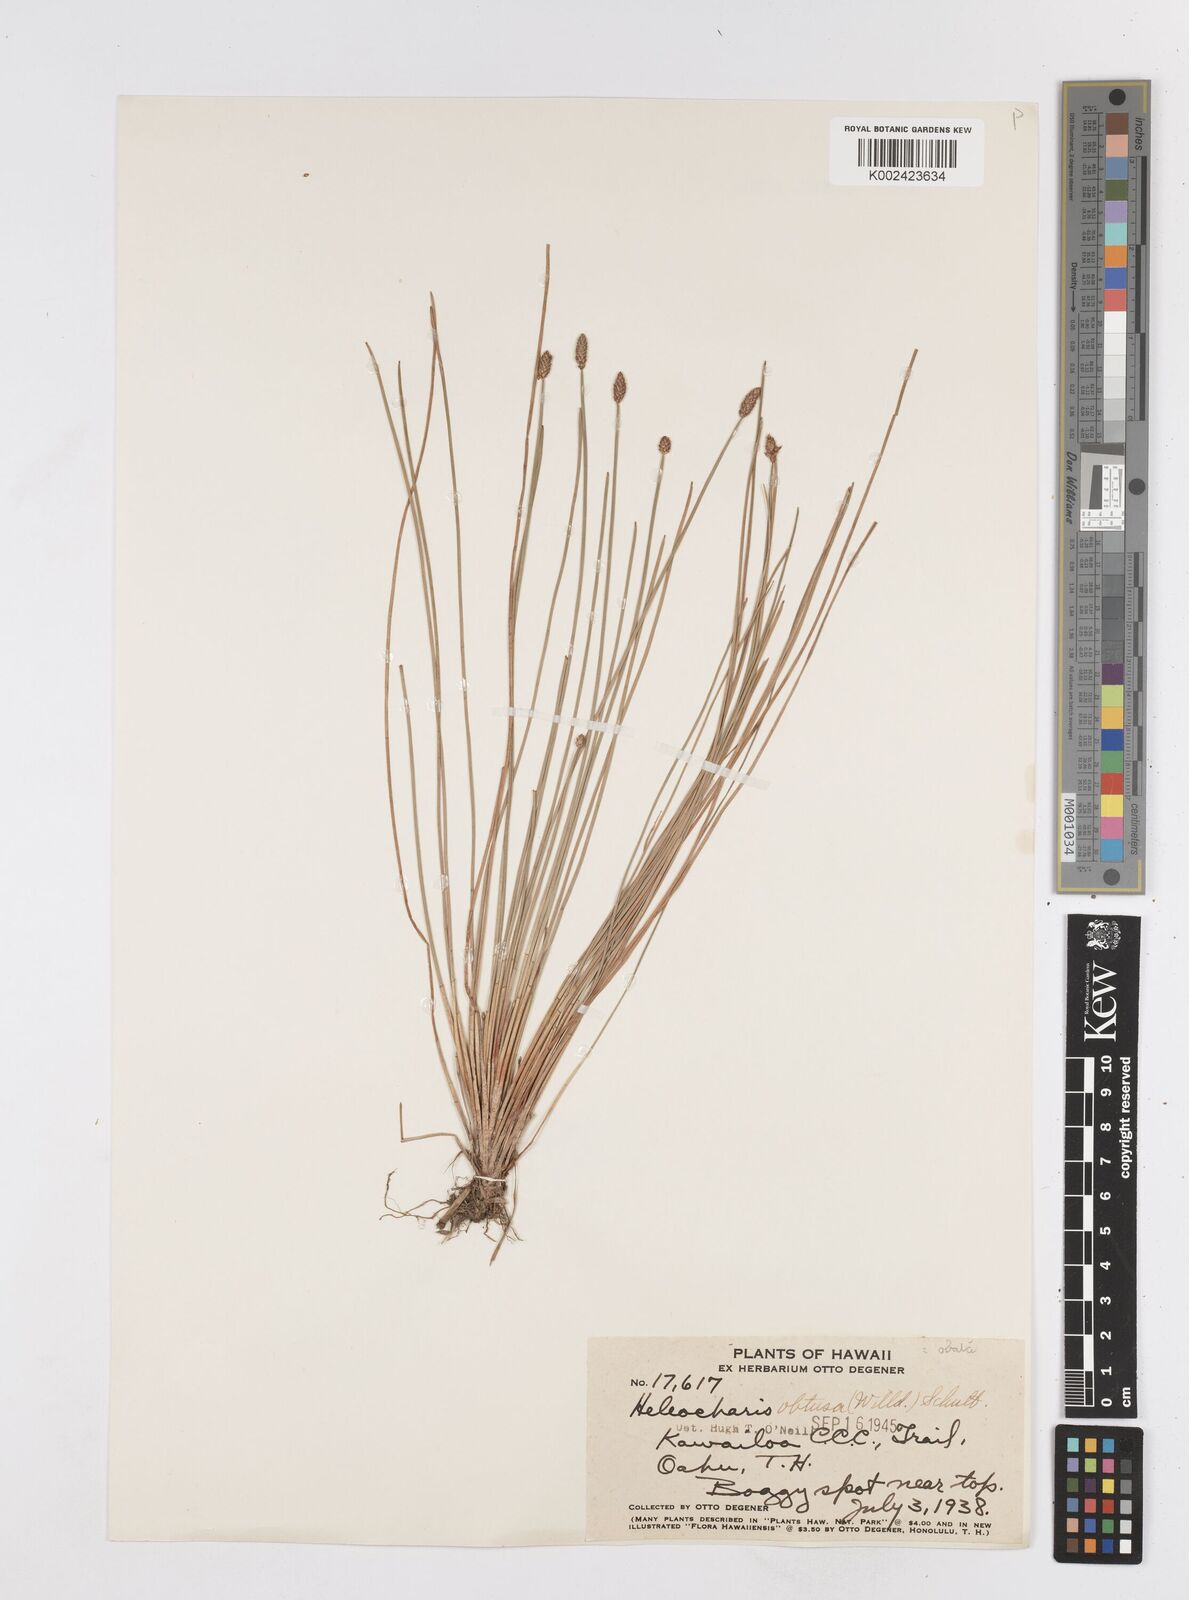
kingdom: Plantae
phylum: Tracheophyta
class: Liliopsida
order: Poales
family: Cyperaceae
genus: Eleocharis
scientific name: Eleocharis obtusa
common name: Blunt spikerush
